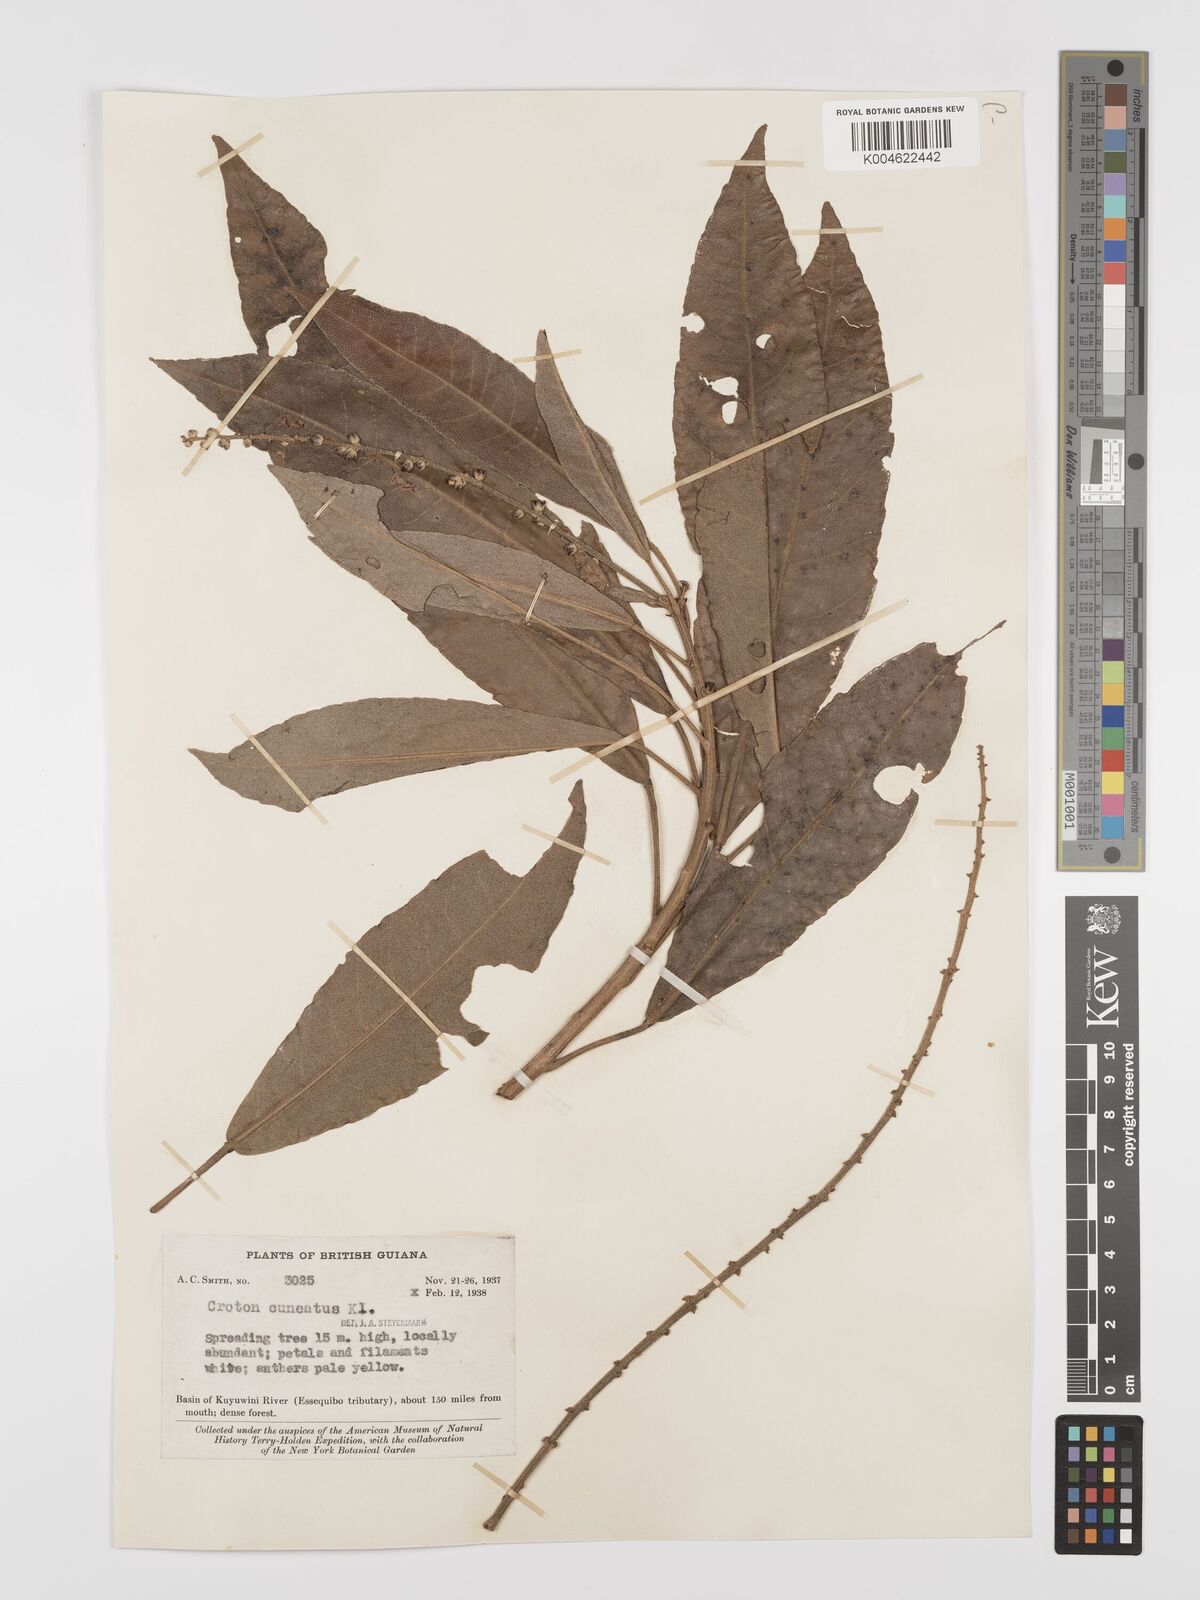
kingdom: Plantae
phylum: Tracheophyta
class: Magnoliopsida
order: Malpighiales
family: Euphorbiaceae
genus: Croton
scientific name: Croton
